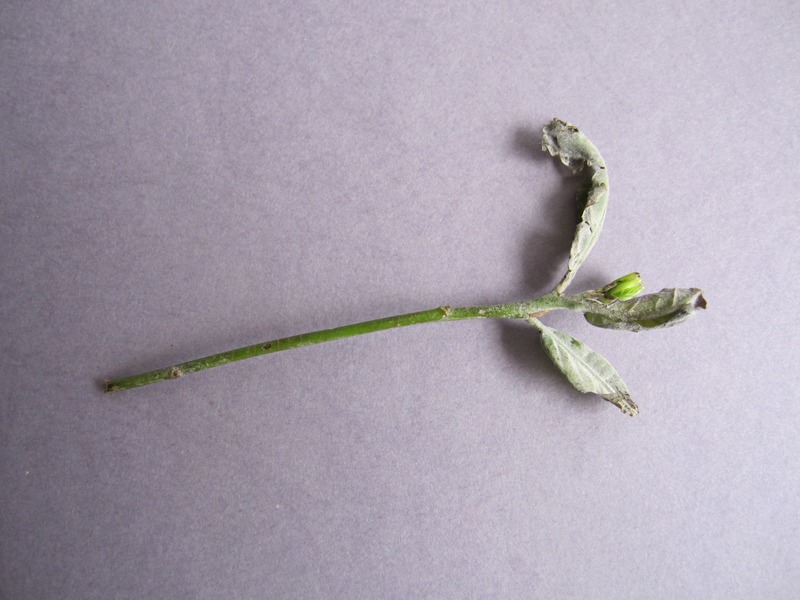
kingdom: Fungi
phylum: Ascomycota
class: Leotiomycetes
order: Helotiales
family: Erysiphaceae
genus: Erysiphe
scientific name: Erysiphe alphitoides
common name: Oak mildew
